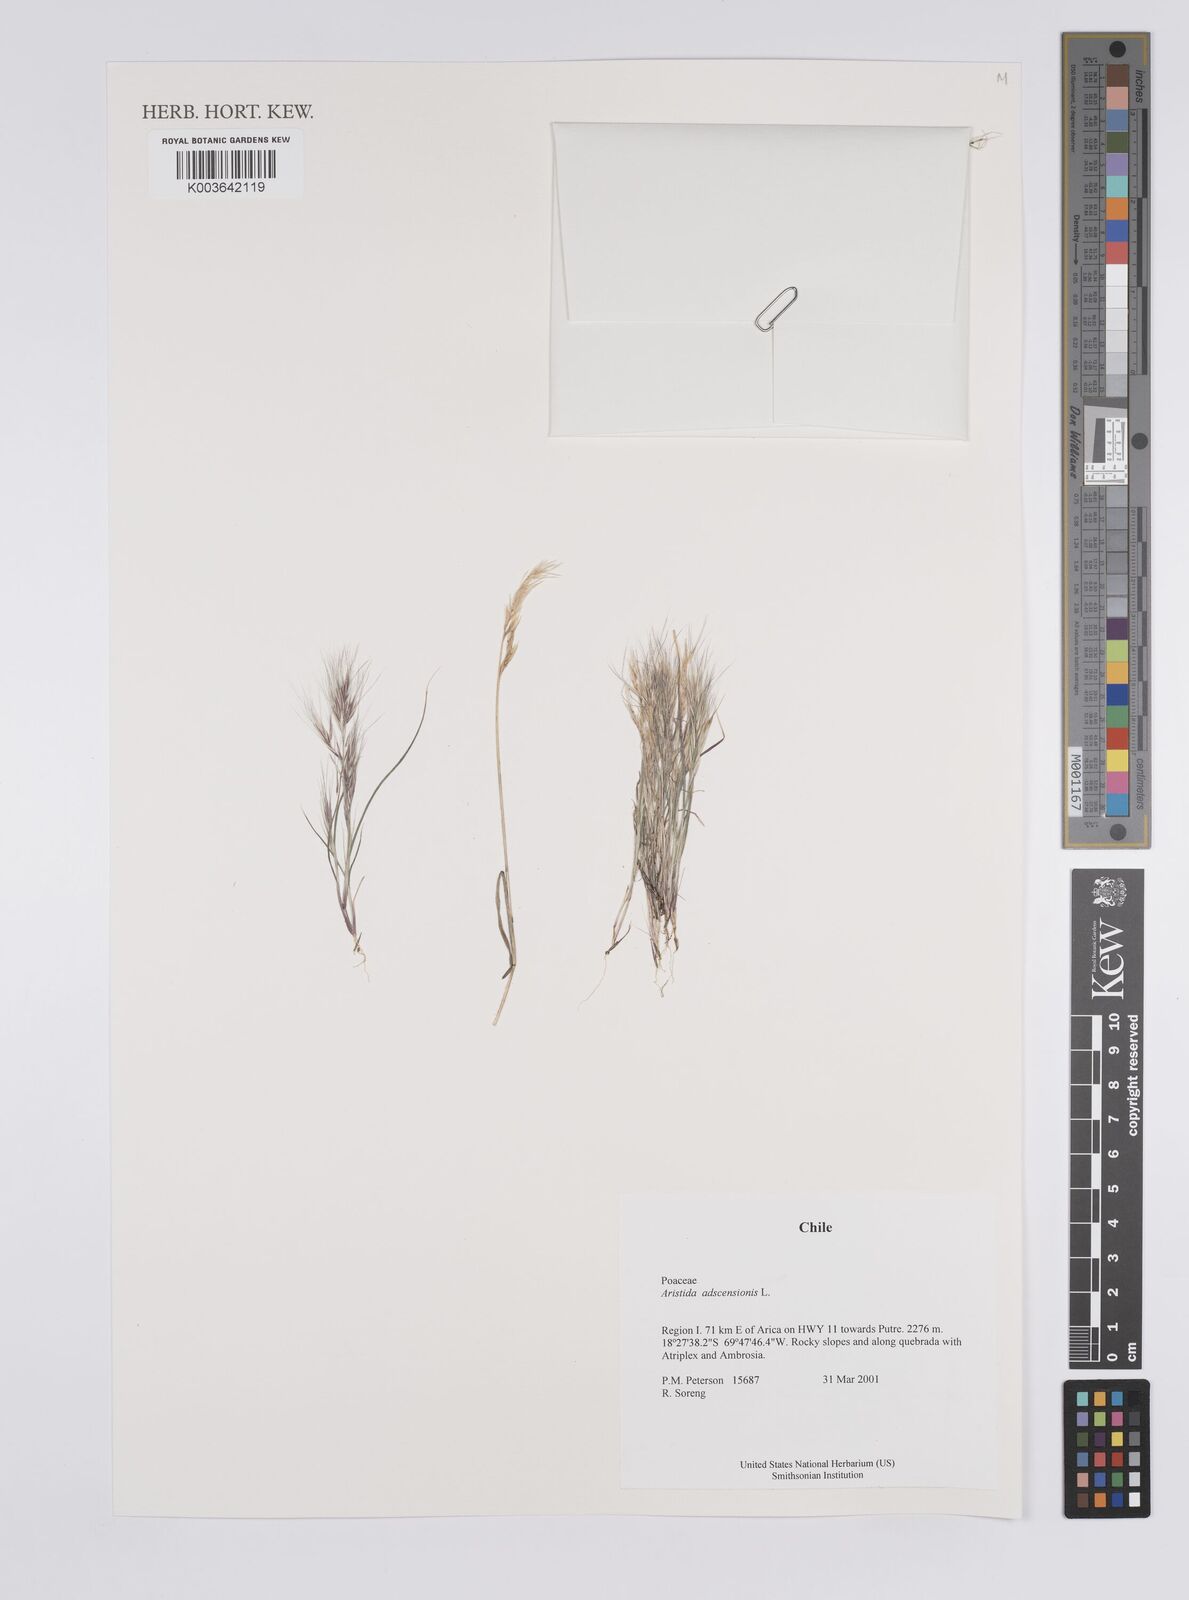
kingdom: Plantae
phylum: Tracheophyta
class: Liliopsida
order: Poales
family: Poaceae
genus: Aristida
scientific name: Aristida adscensionis
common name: Sixweeks threeawn
